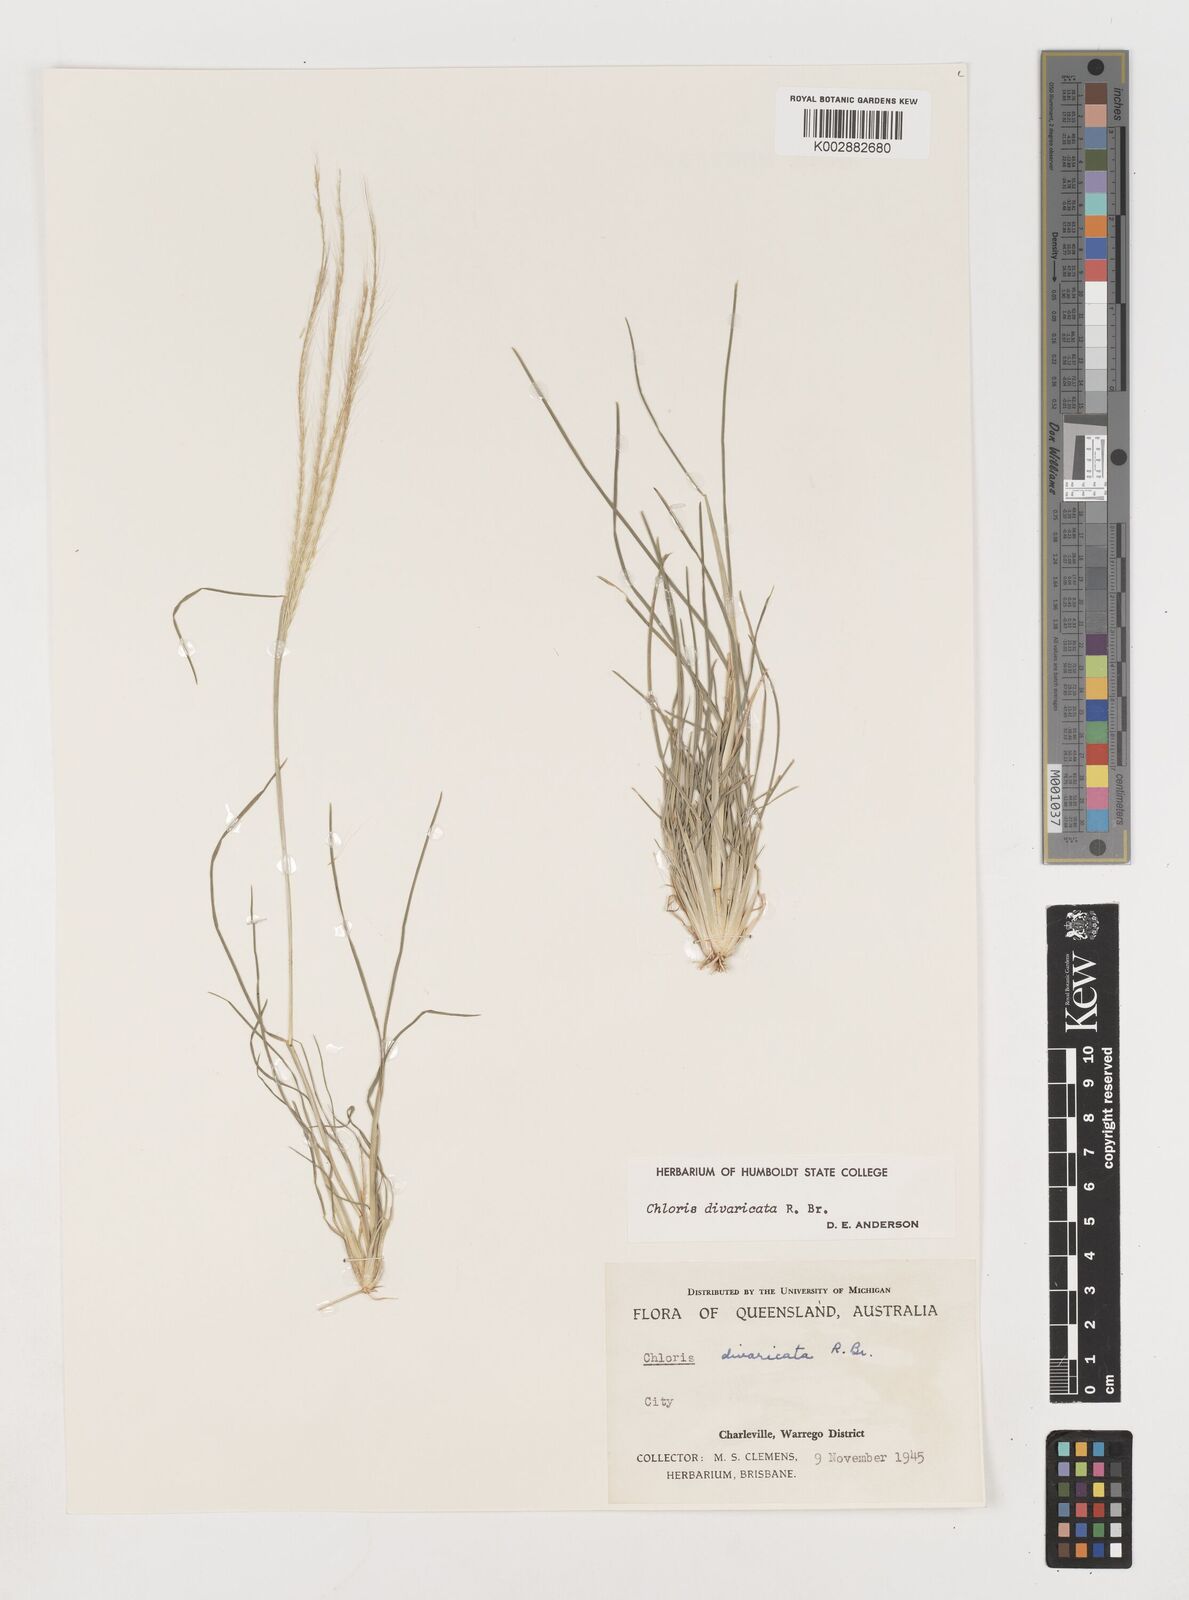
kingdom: Plantae
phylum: Tracheophyta
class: Liliopsida
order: Poales
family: Poaceae
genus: Chloris
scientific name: Chloris divaricata
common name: Spreading windmill grass
